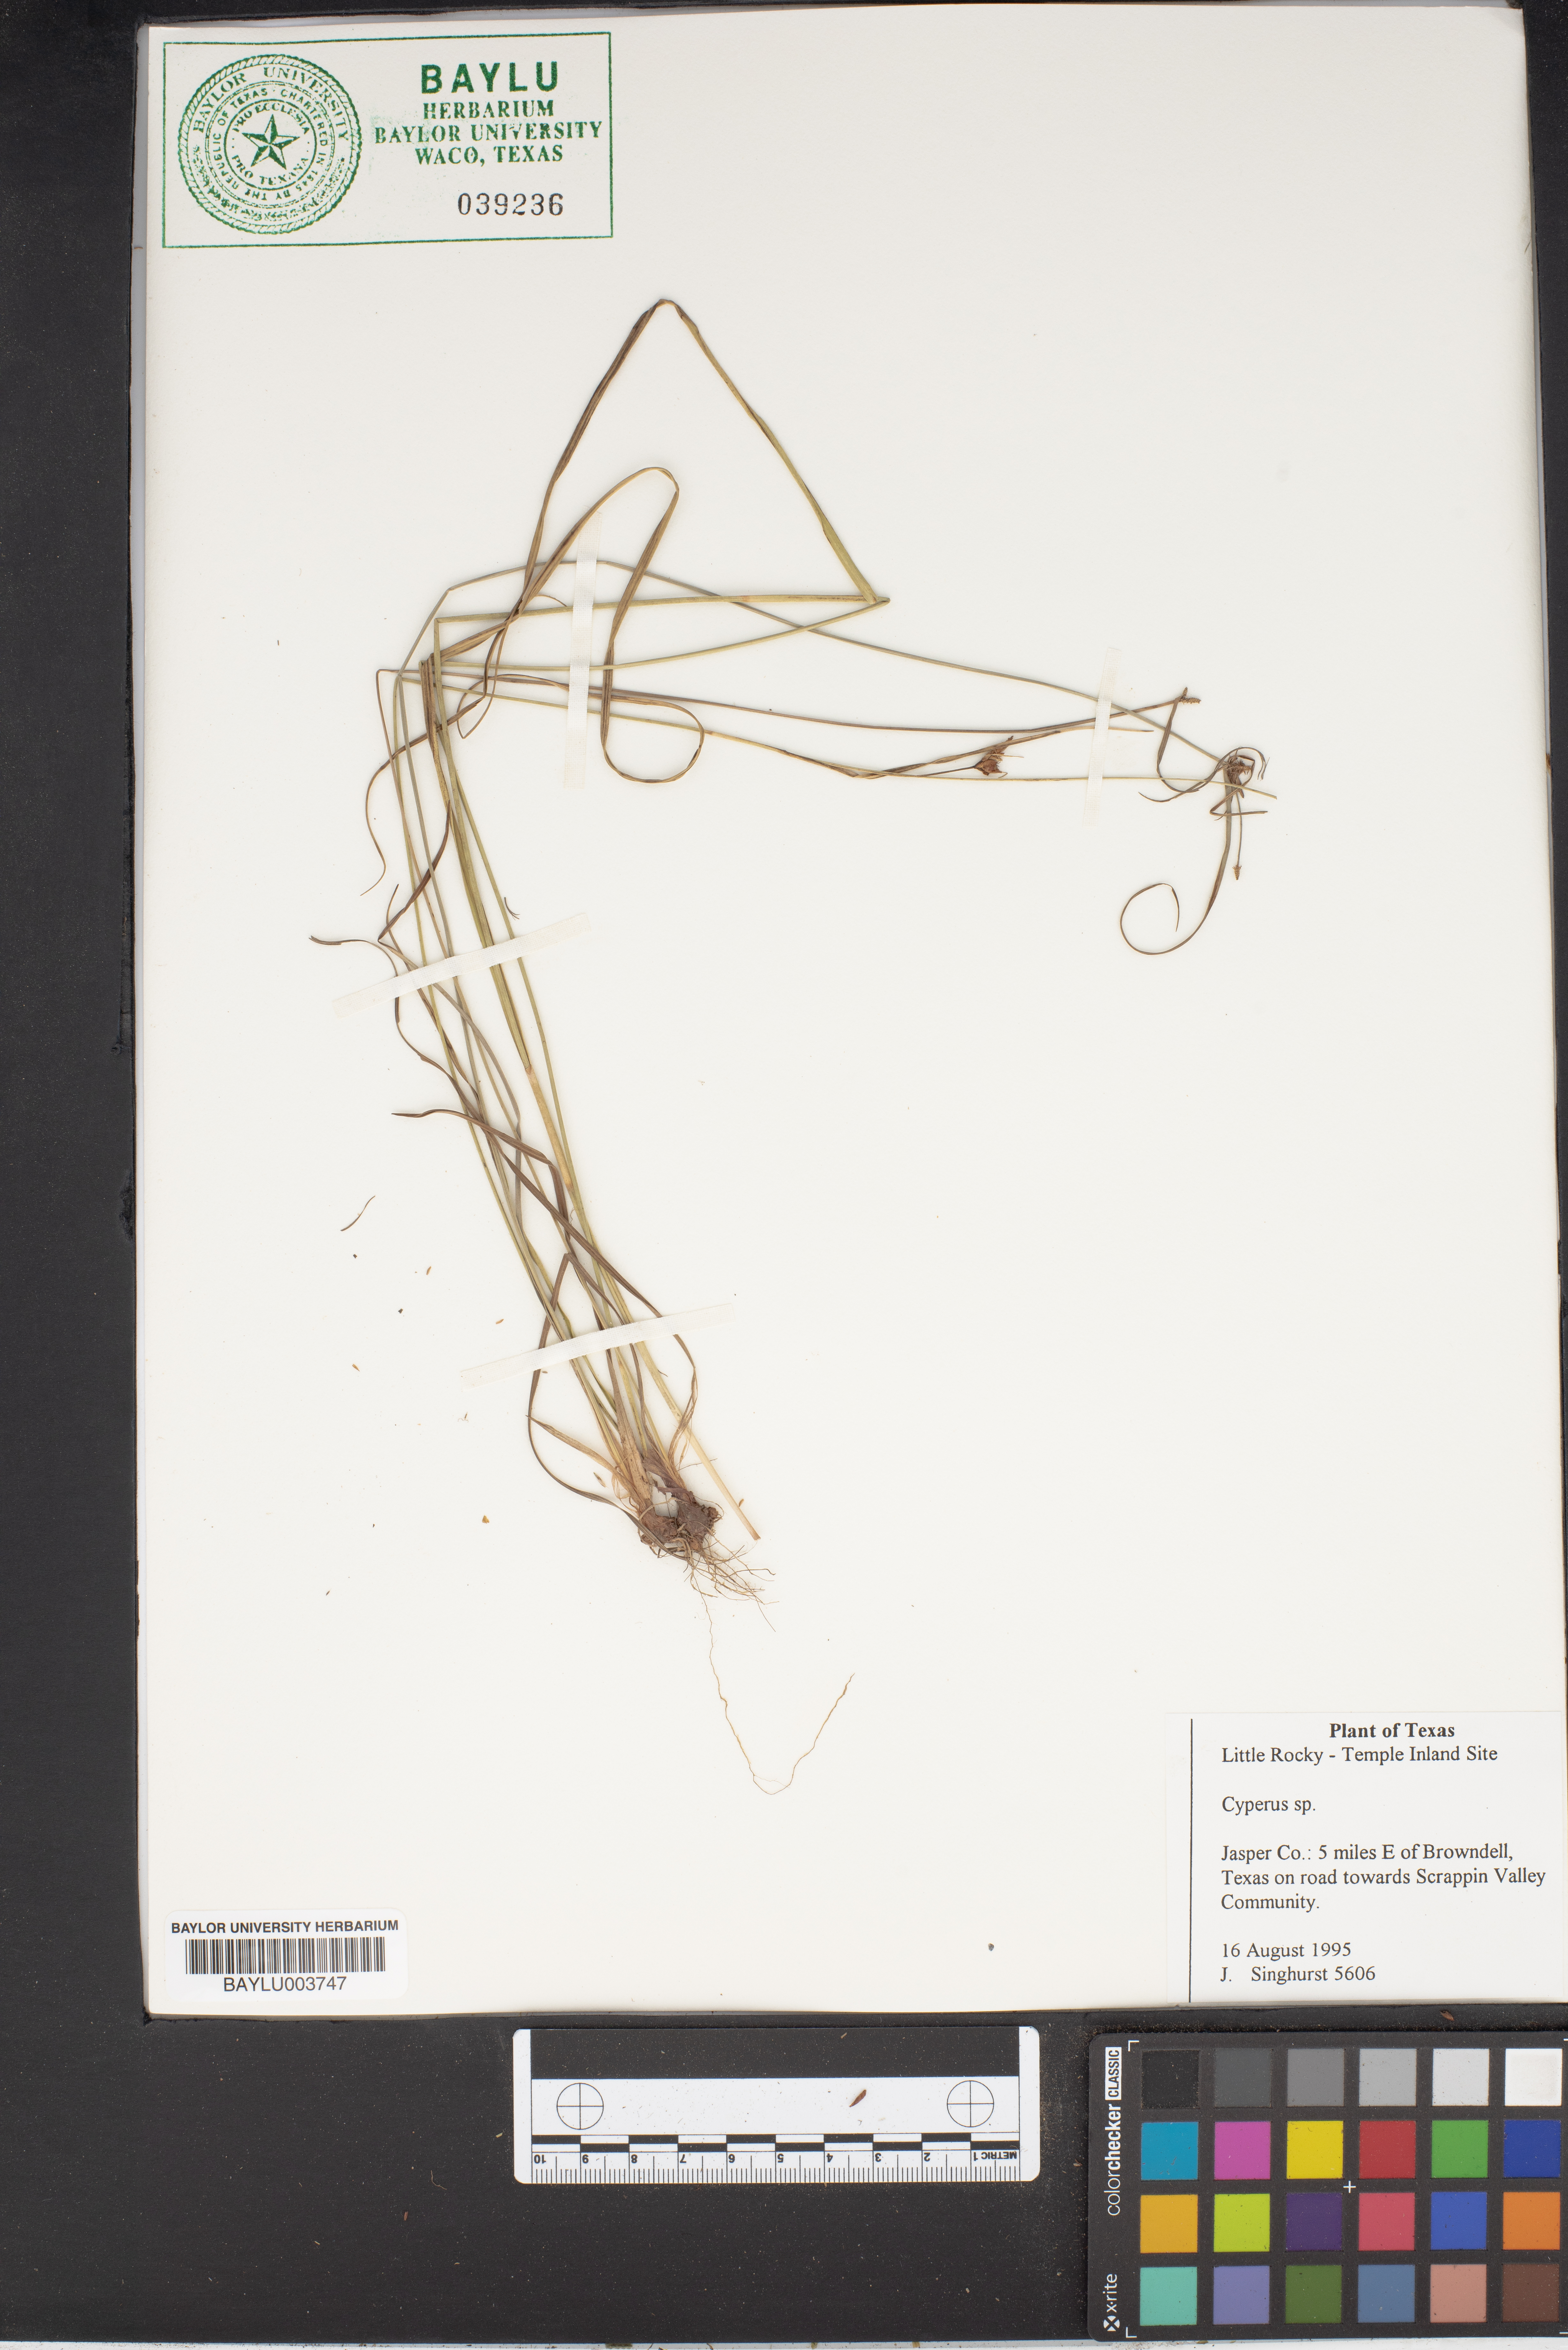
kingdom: Plantae
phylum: Tracheophyta
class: Liliopsida
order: Poales
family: Cyperaceae
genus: Cyperus
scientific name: Cyperus
